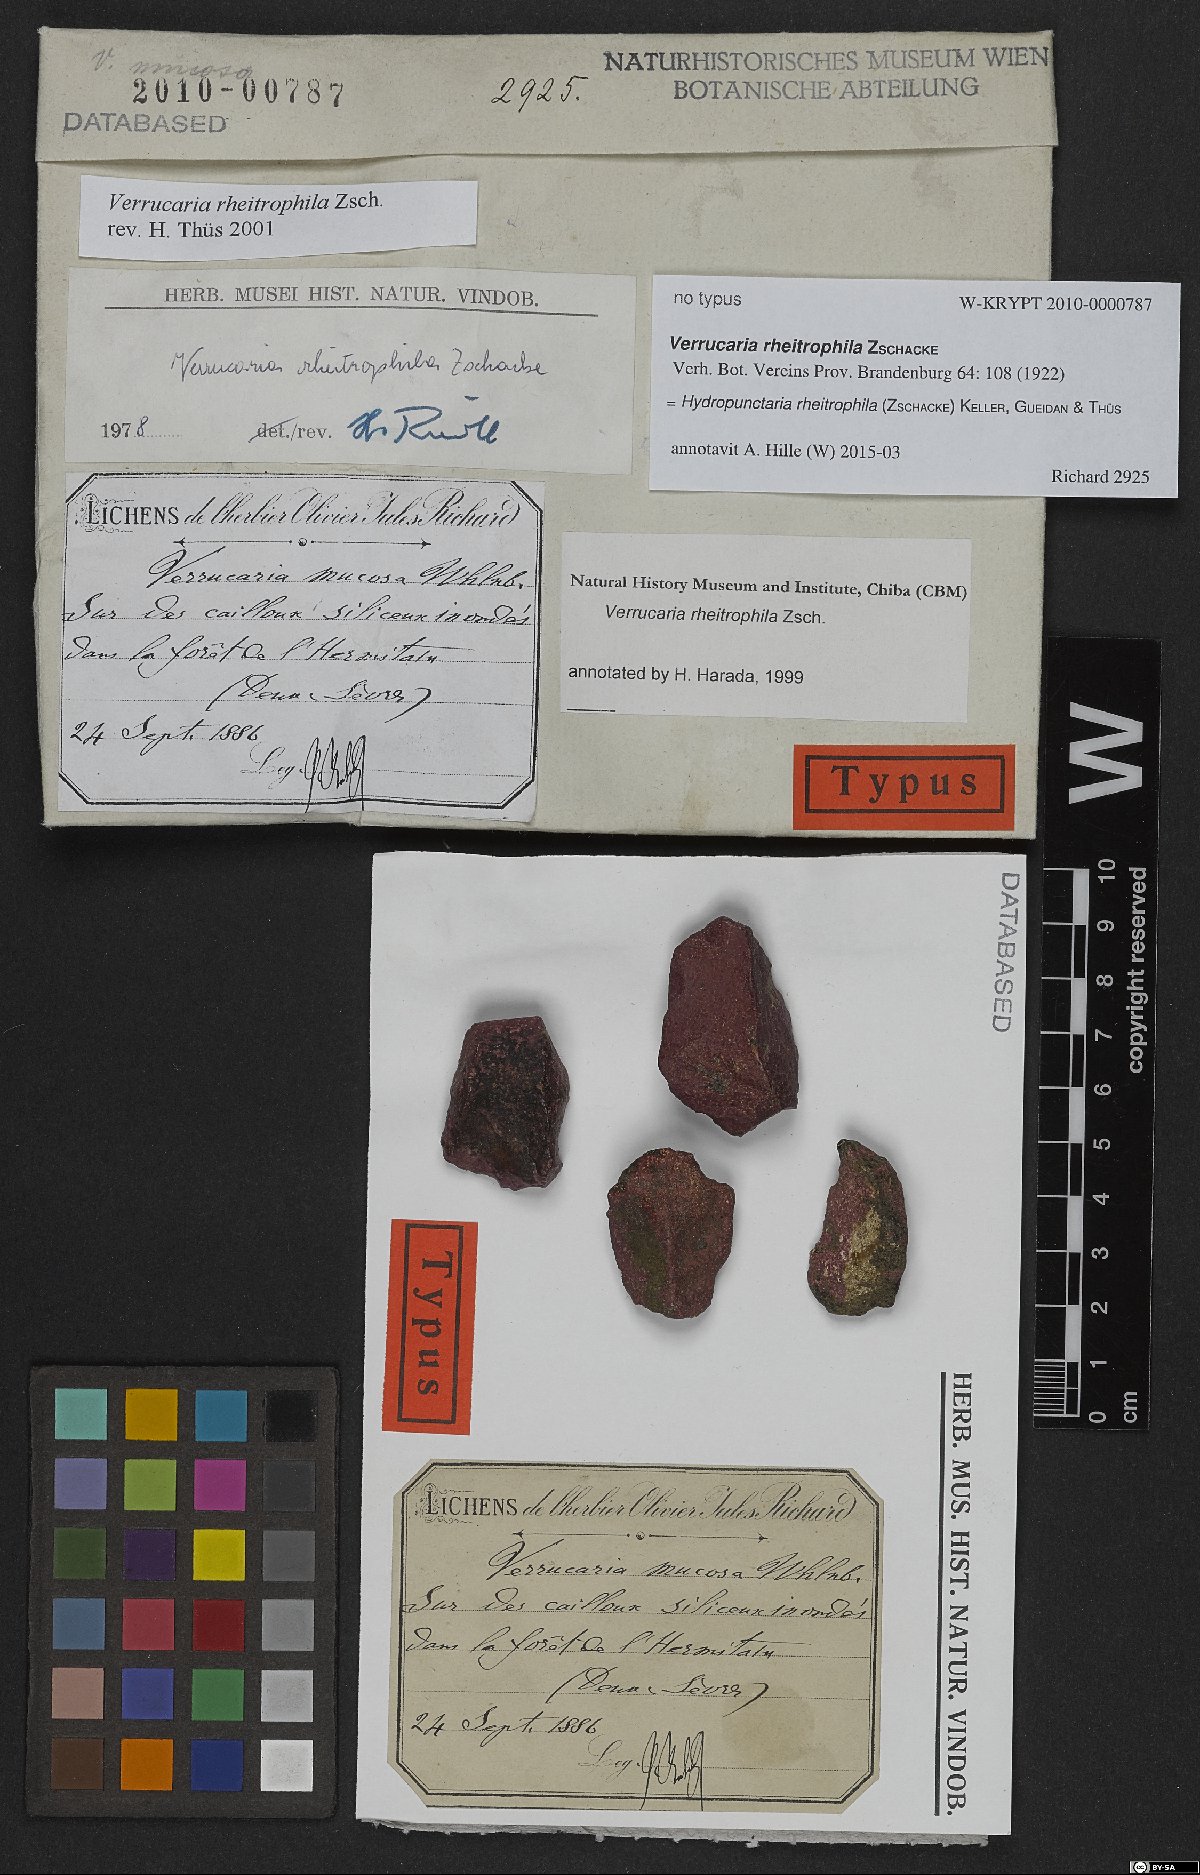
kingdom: Fungi
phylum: Ascomycota
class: Eurotiomycetes
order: Verrucariales
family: Verrucariaceae
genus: Hydropunctaria
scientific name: Hydropunctaria rheitrophila
